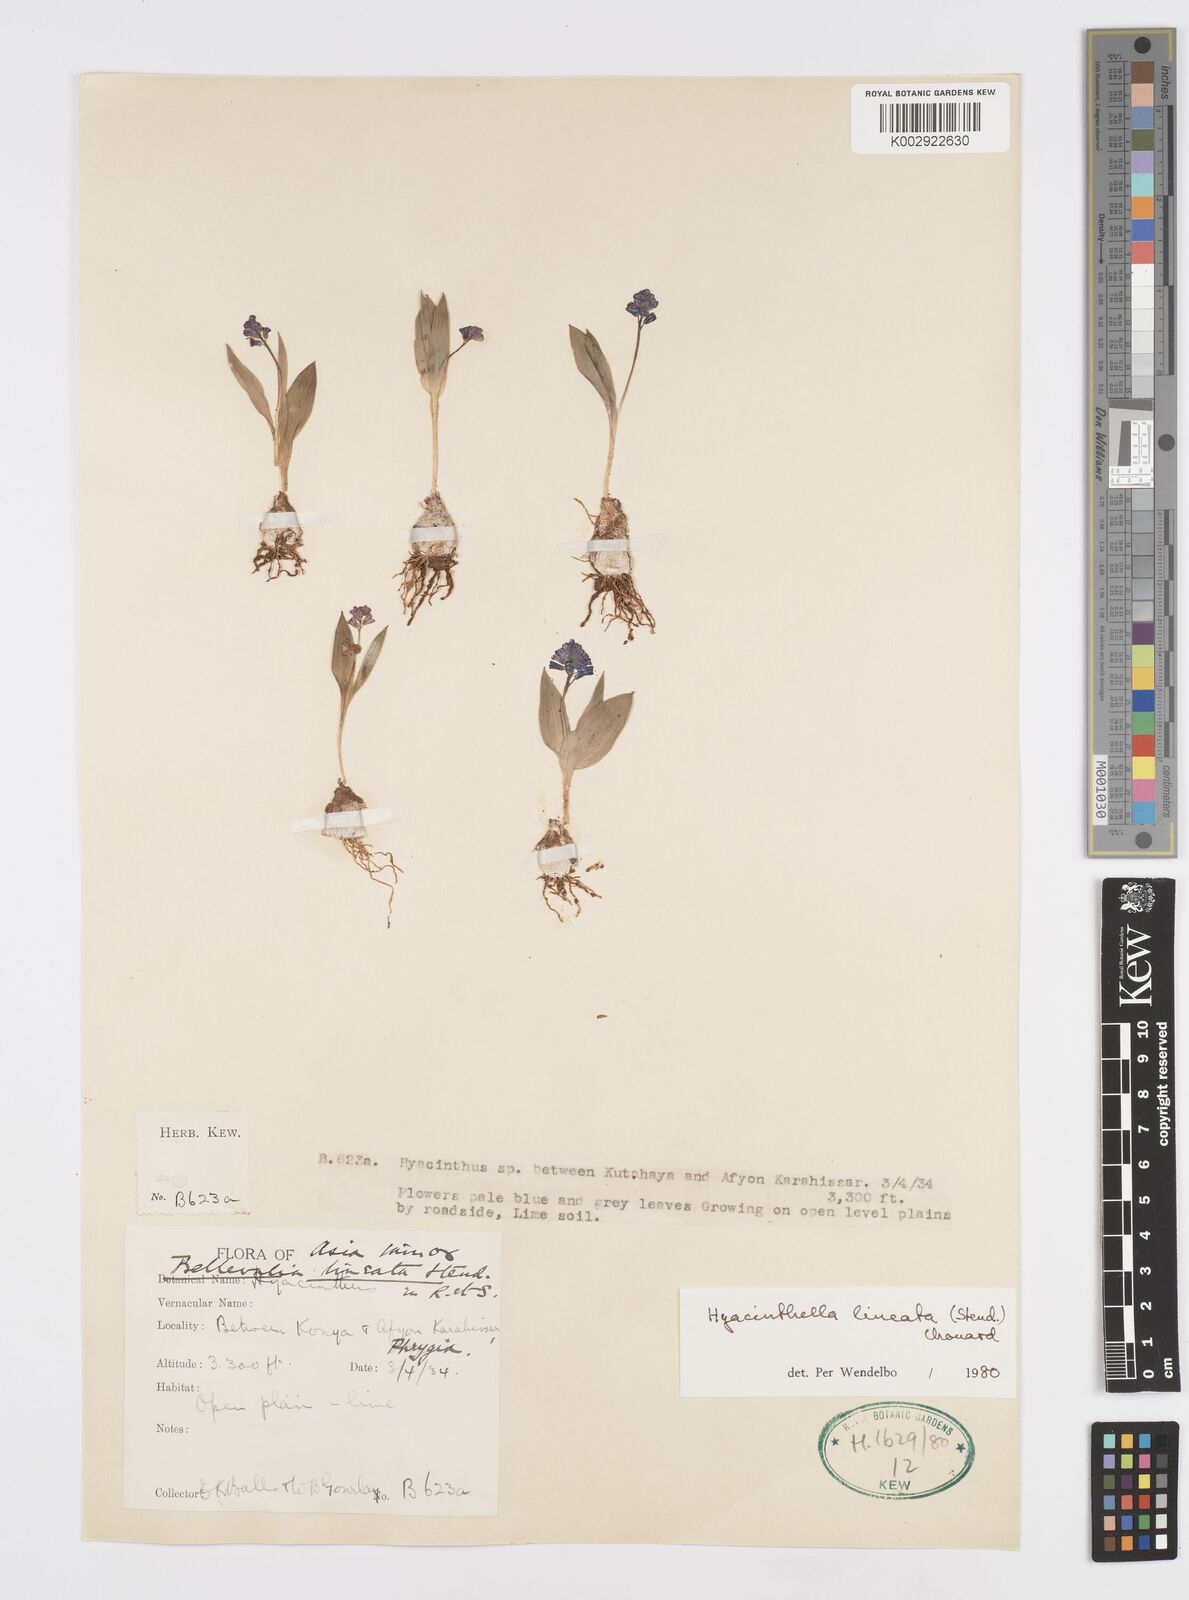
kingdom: Plantae
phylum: Tracheophyta
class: Liliopsida
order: Asparagales
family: Asparagaceae
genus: Hyacinthella
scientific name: Hyacinthella lineata
